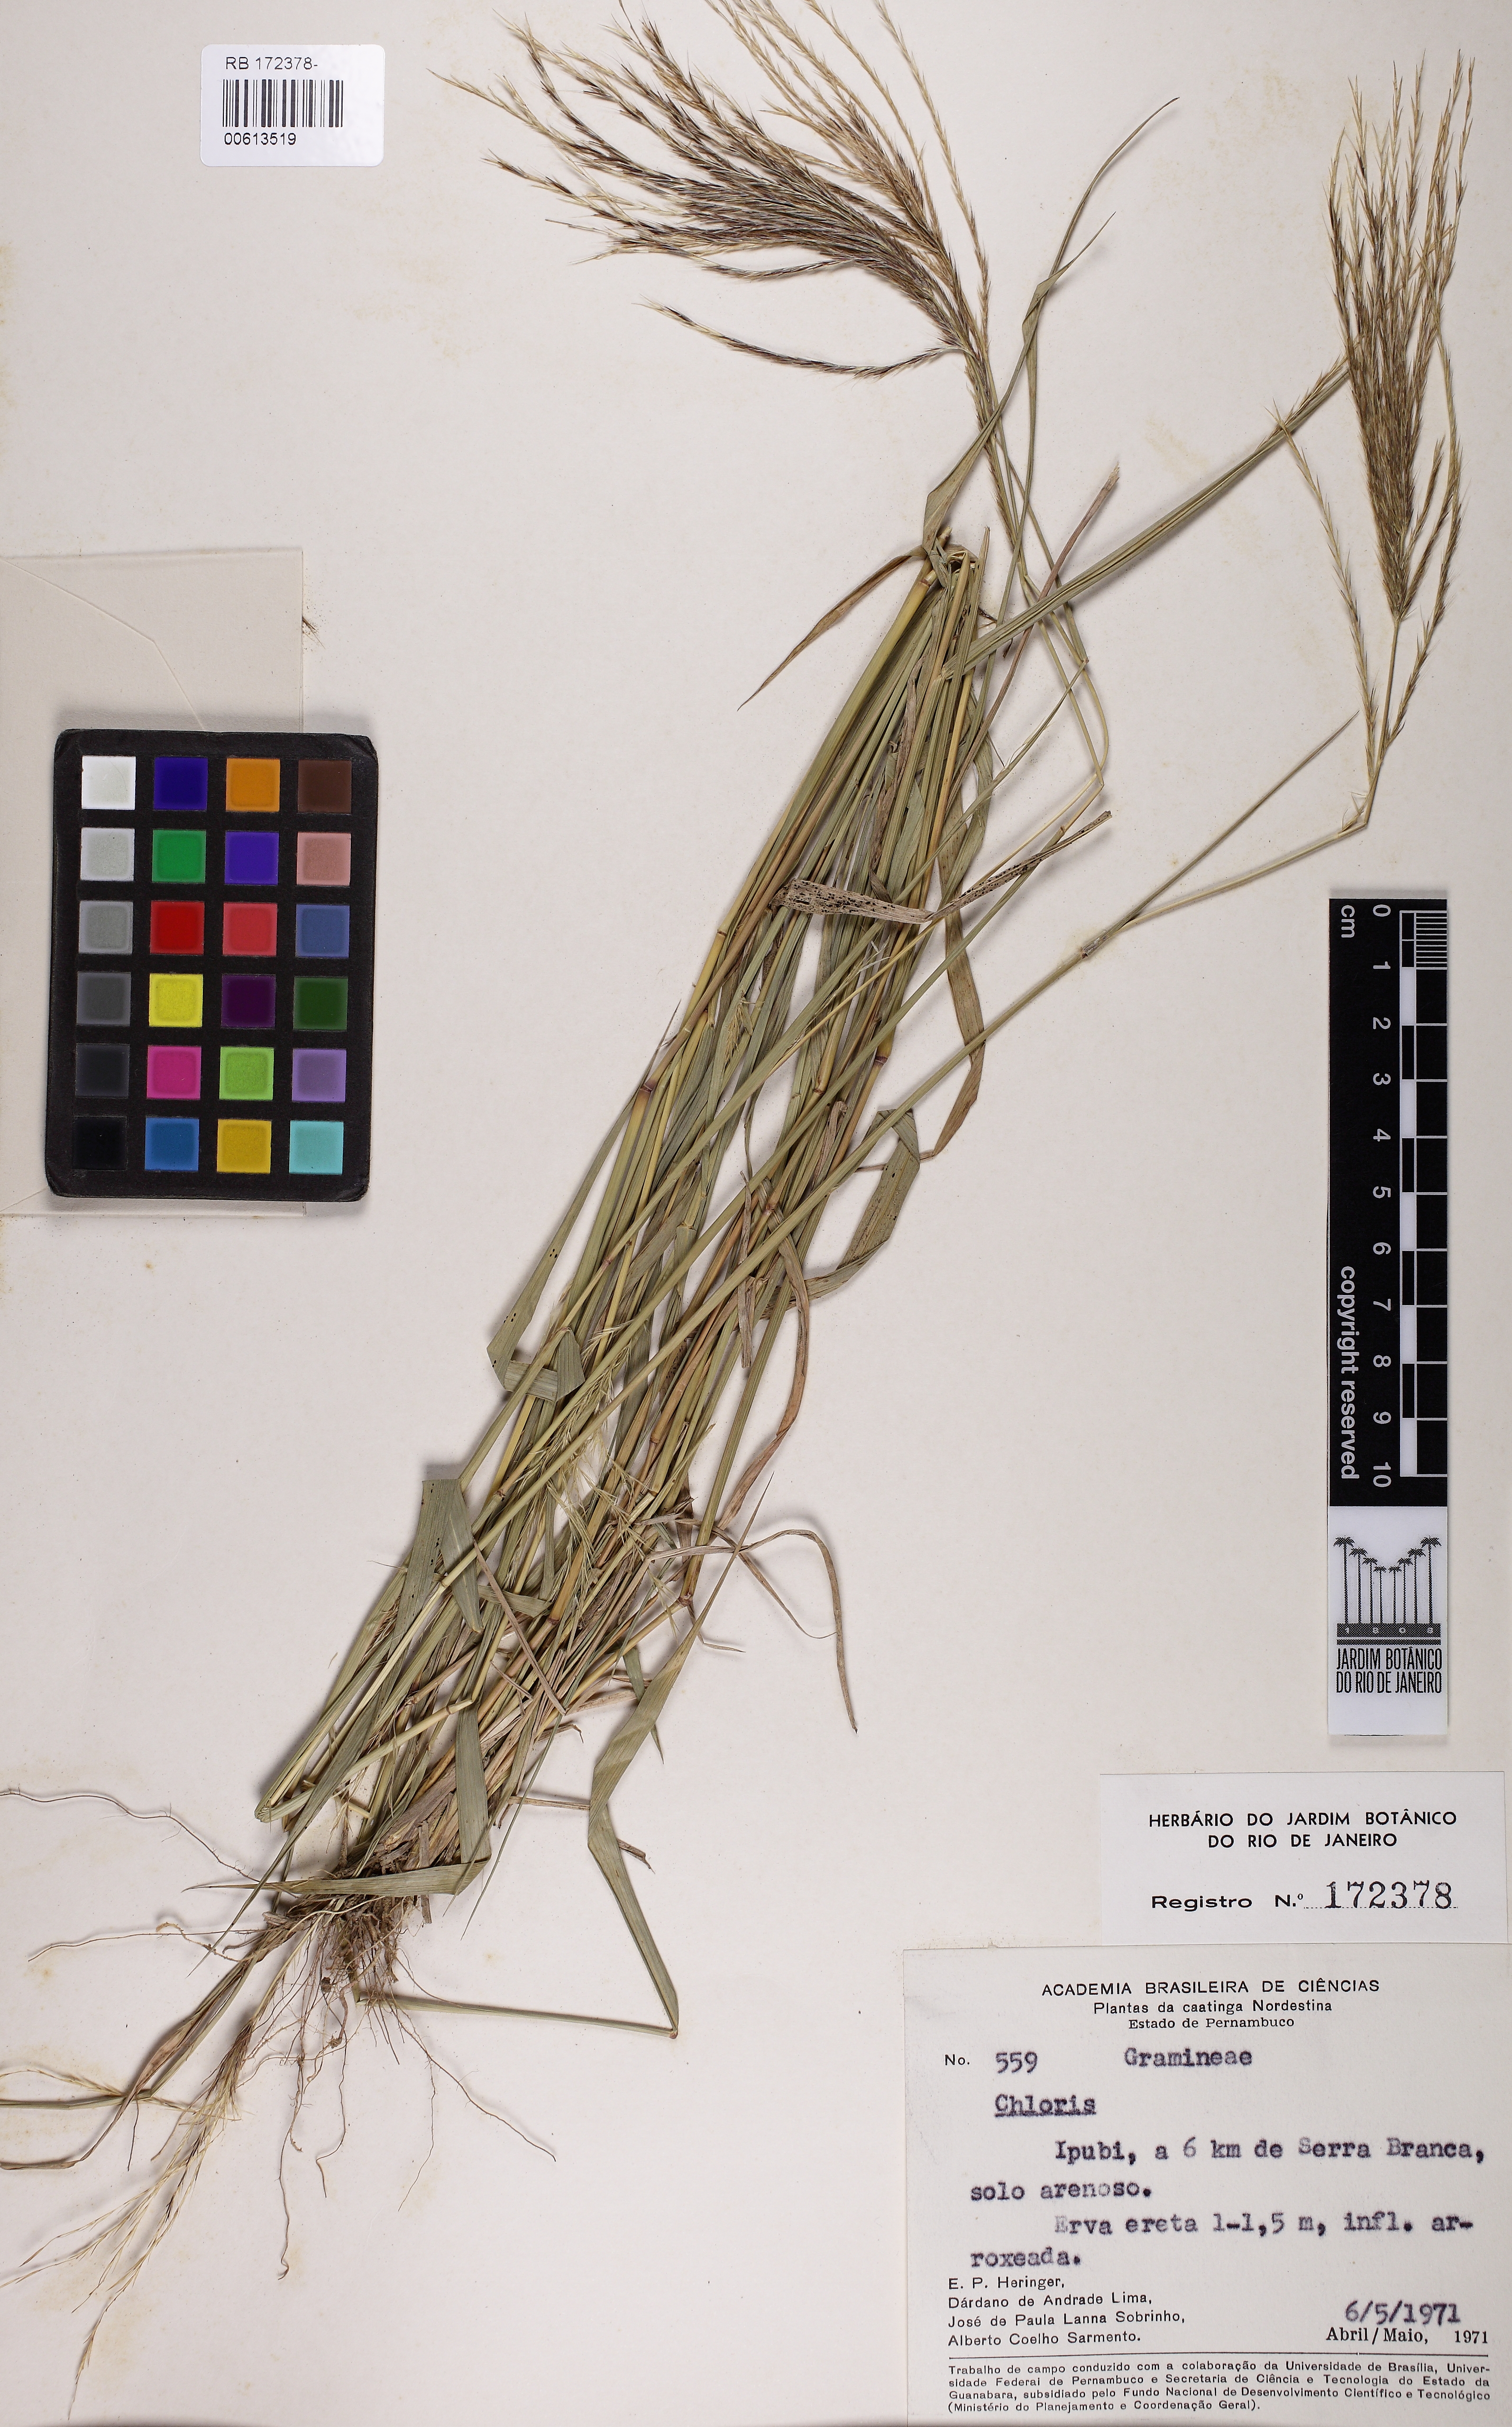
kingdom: Plantae
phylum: Tracheophyta
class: Liliopsida
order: Poales
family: Poaceae
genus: Chloris
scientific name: Chloris
